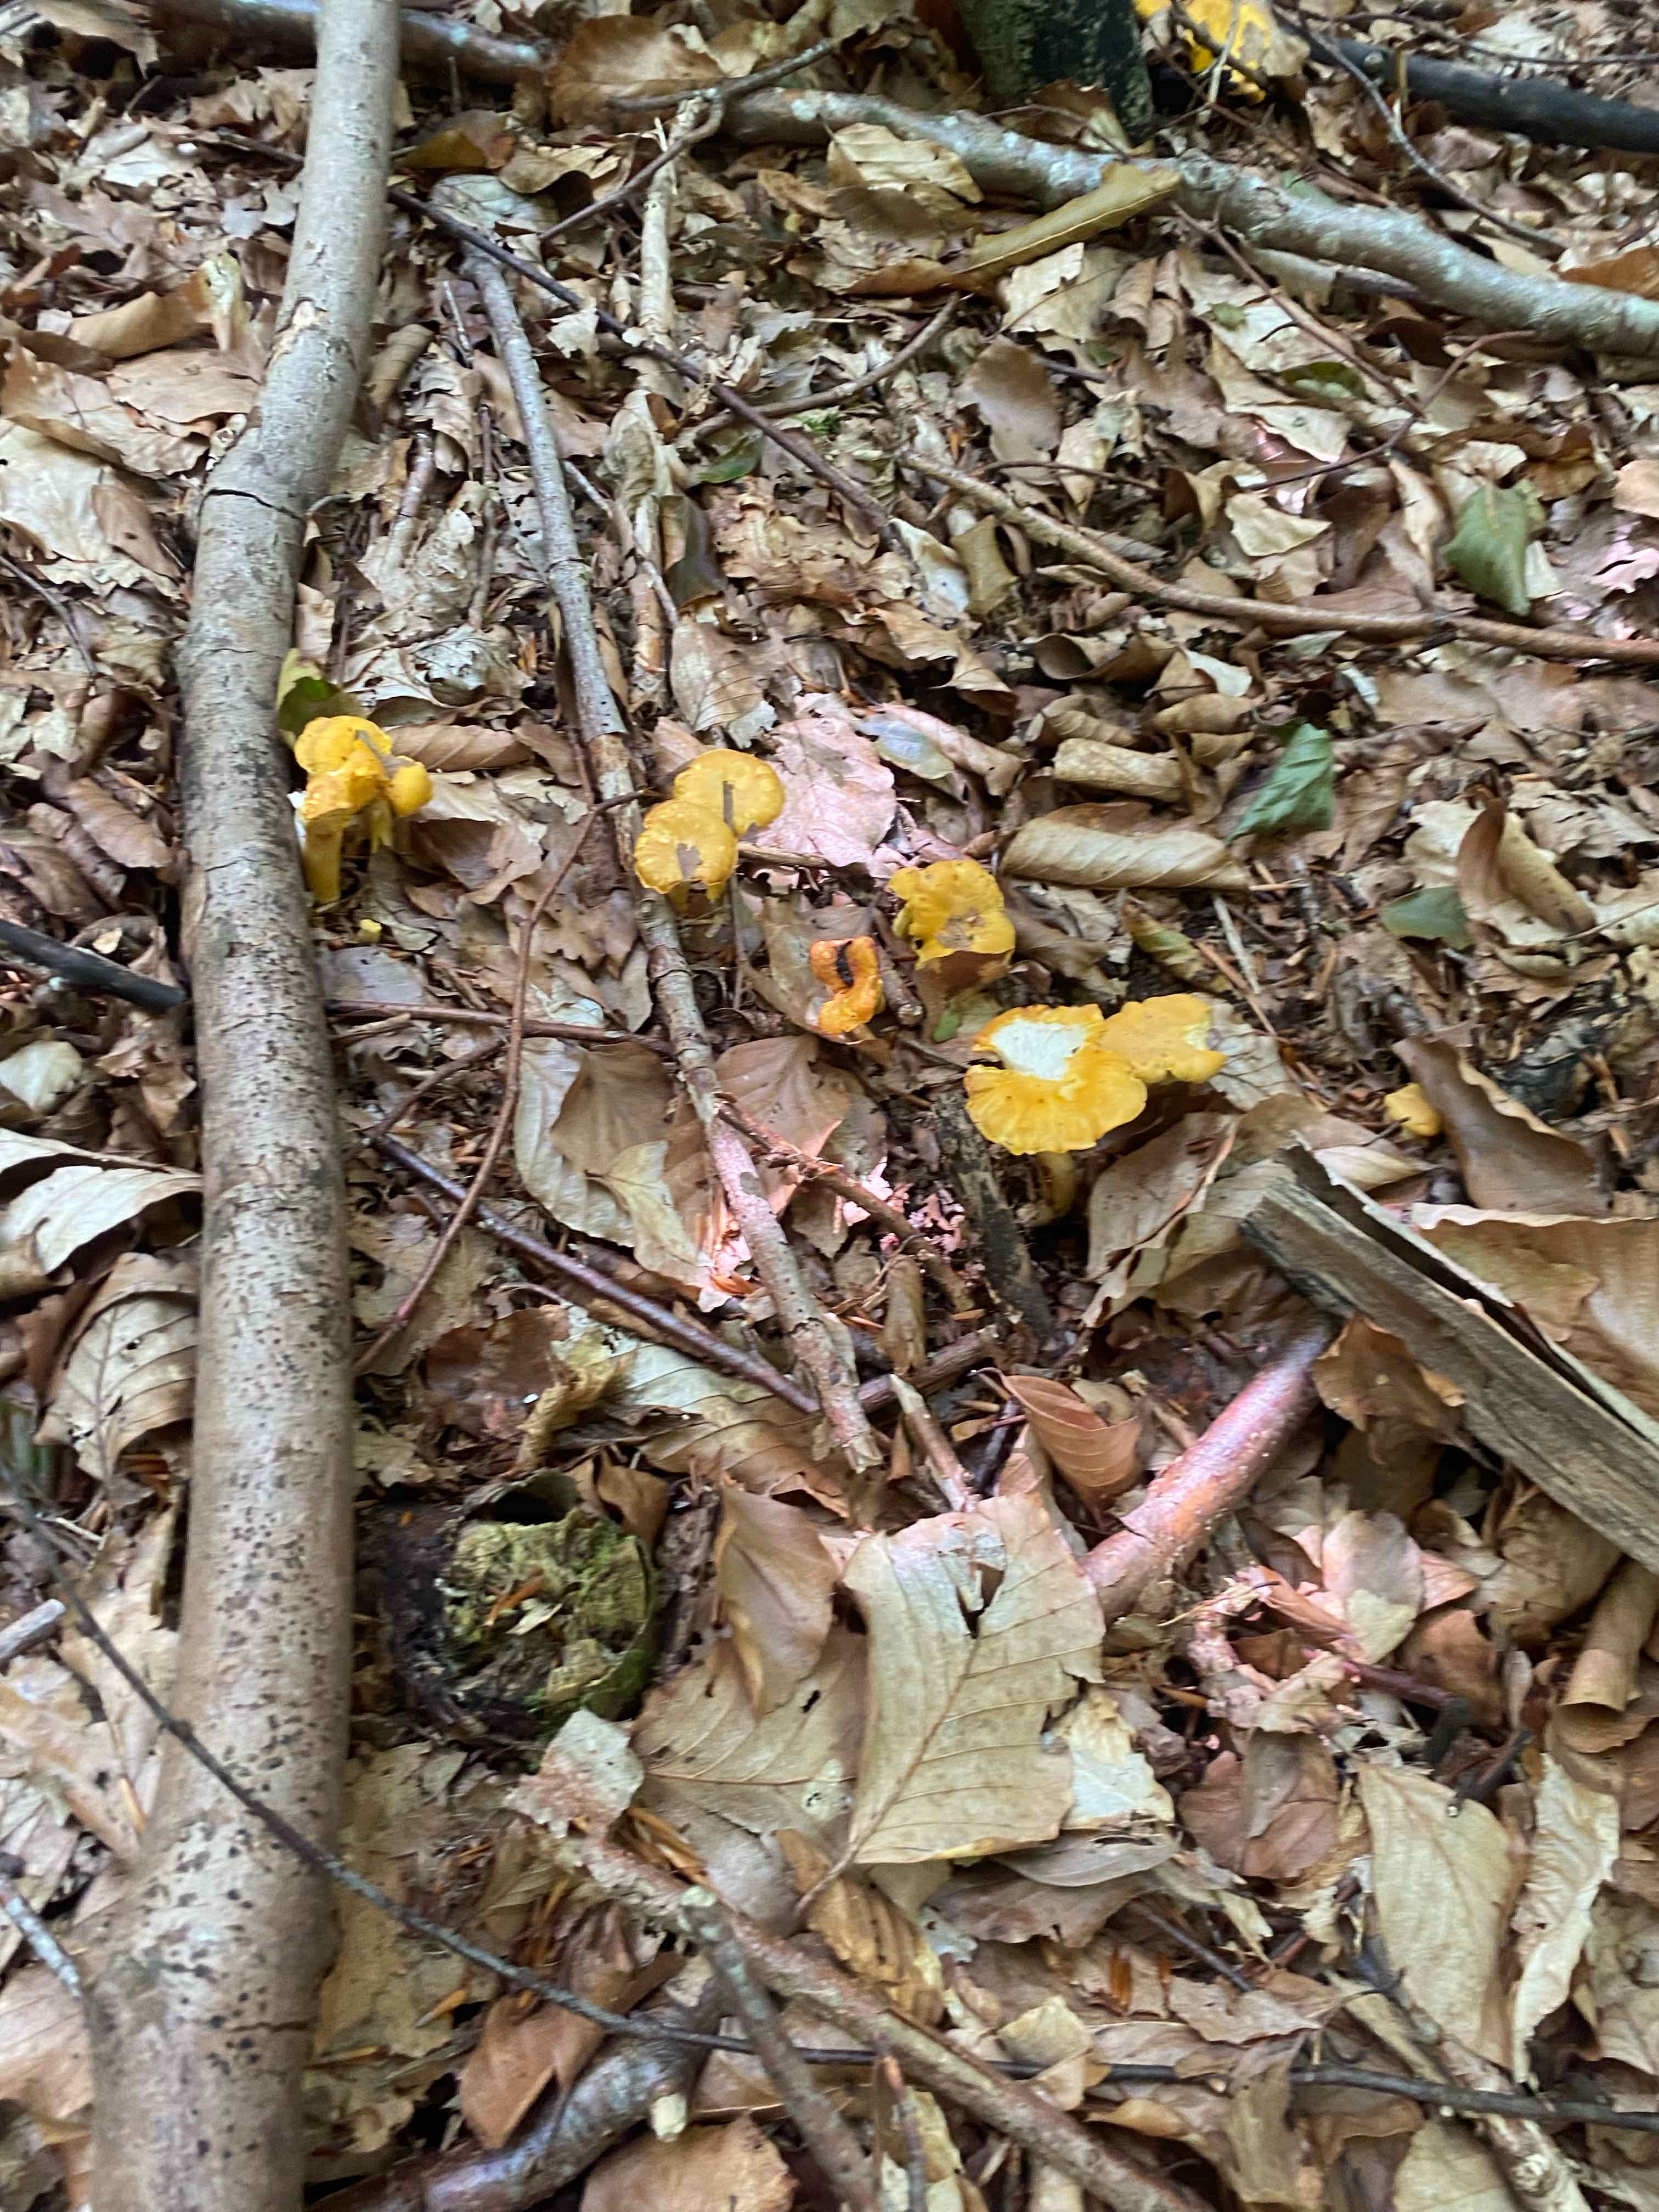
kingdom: Fungi
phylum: Basidiomycota
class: Agaricomycetes
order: Cantharellales
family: Hydnaceae
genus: Cantharellus
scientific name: Cantharellus
